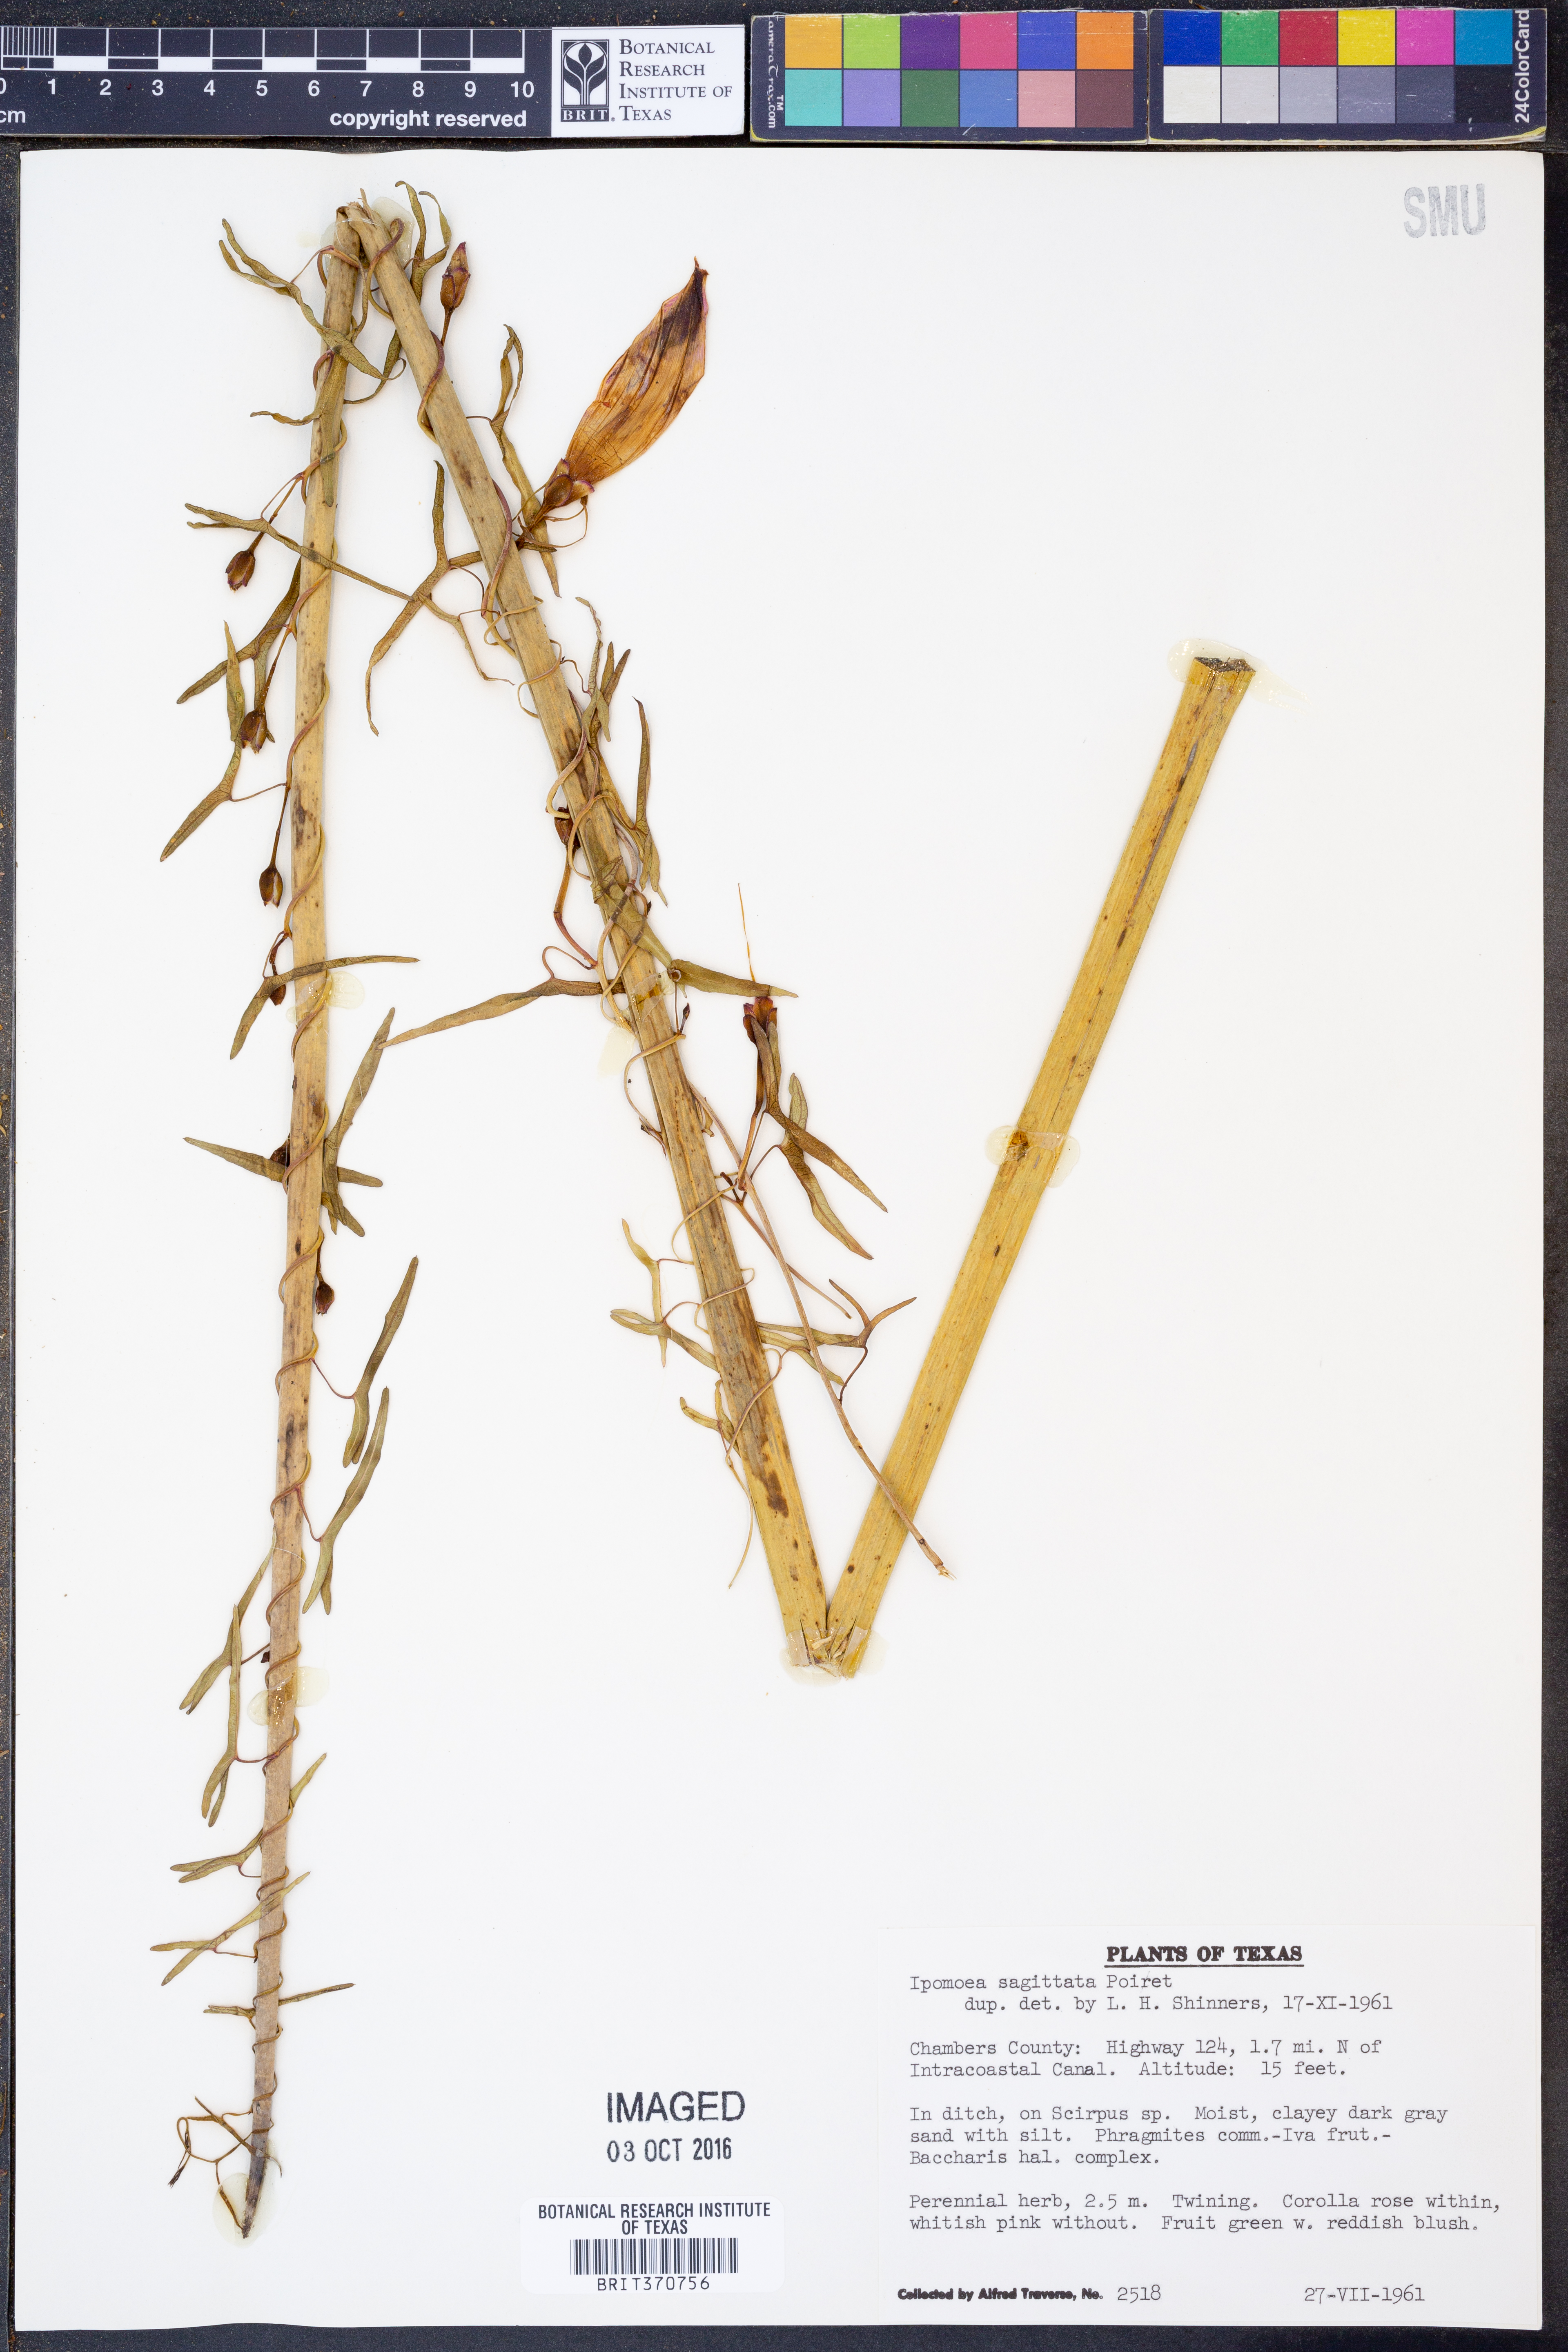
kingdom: Plantae
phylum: Tracheophyta
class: Magnoliopsida
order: Solanales
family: Convolvulaceae
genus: Ipomoea
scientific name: Ipomoea sinensis
